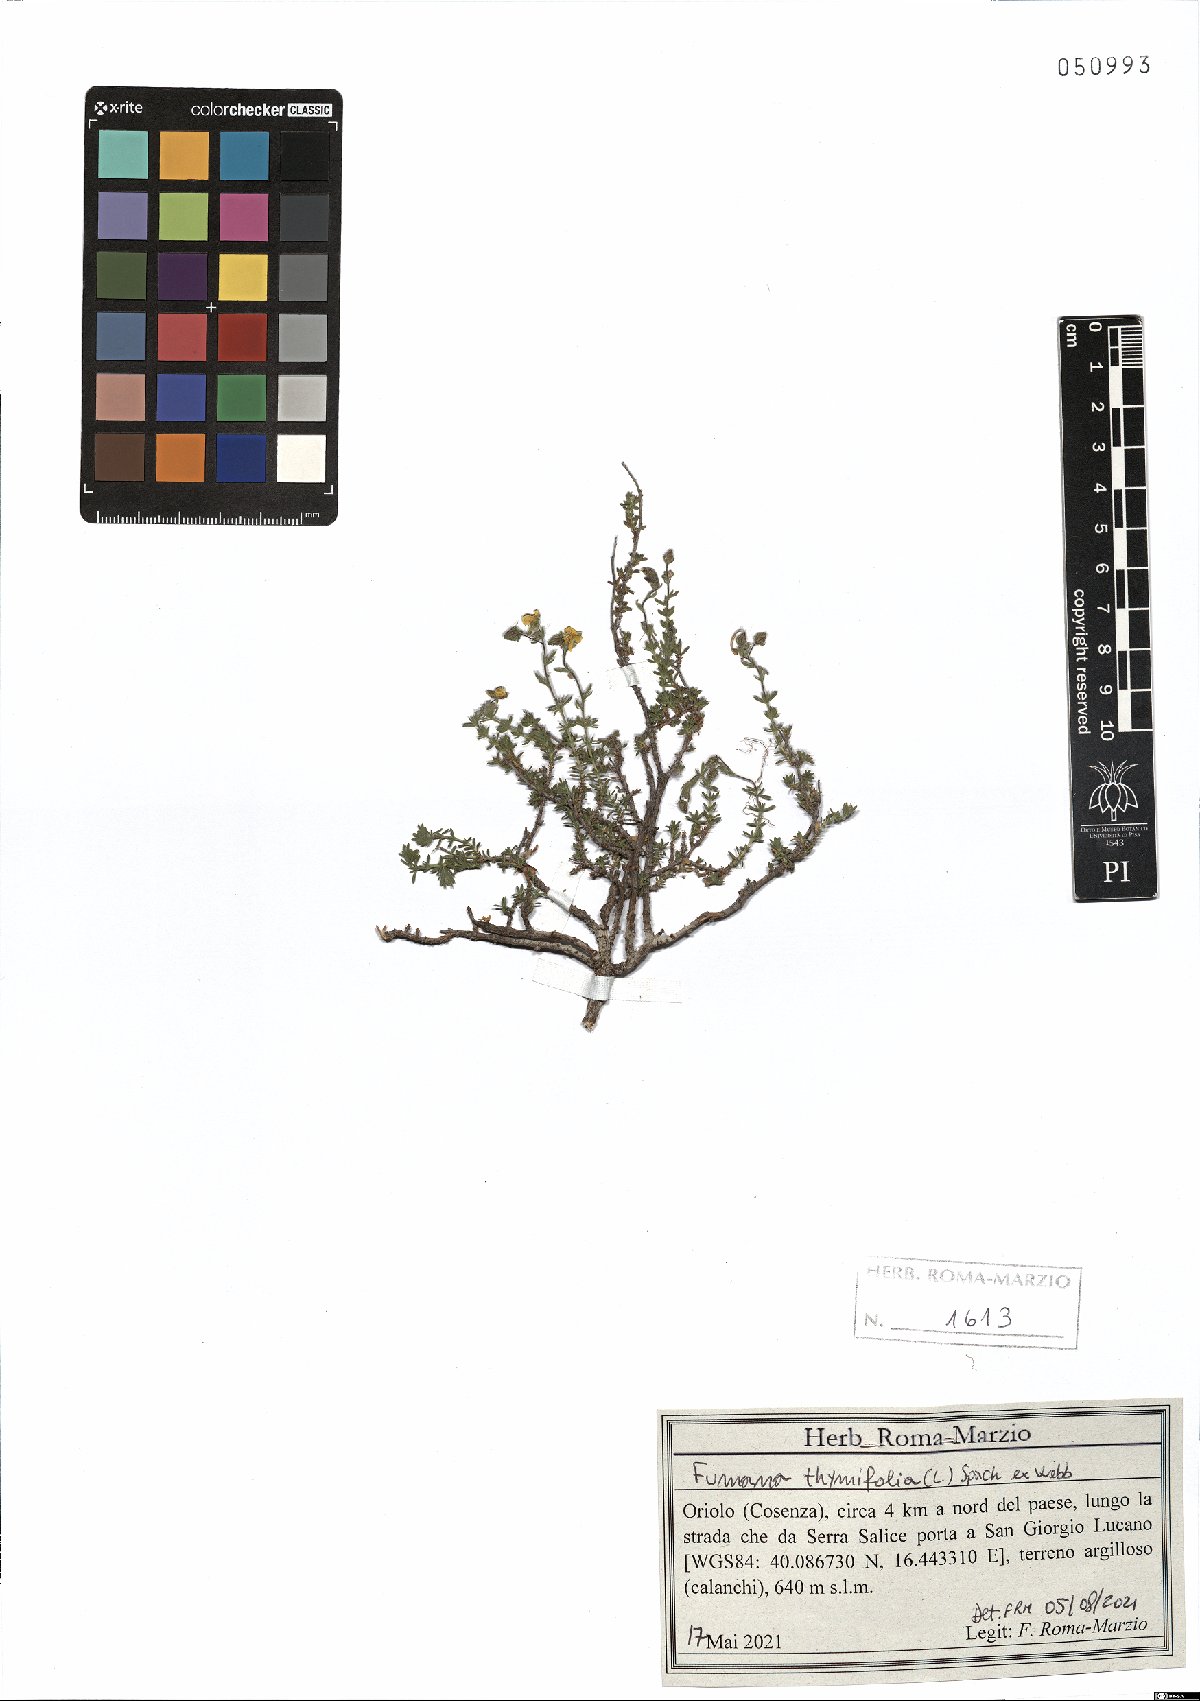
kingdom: Plantae
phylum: Tracheophyta
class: Magnoliopsida
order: Malvales
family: Cistaceae
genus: Fumana
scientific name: Fumana thymifolia
